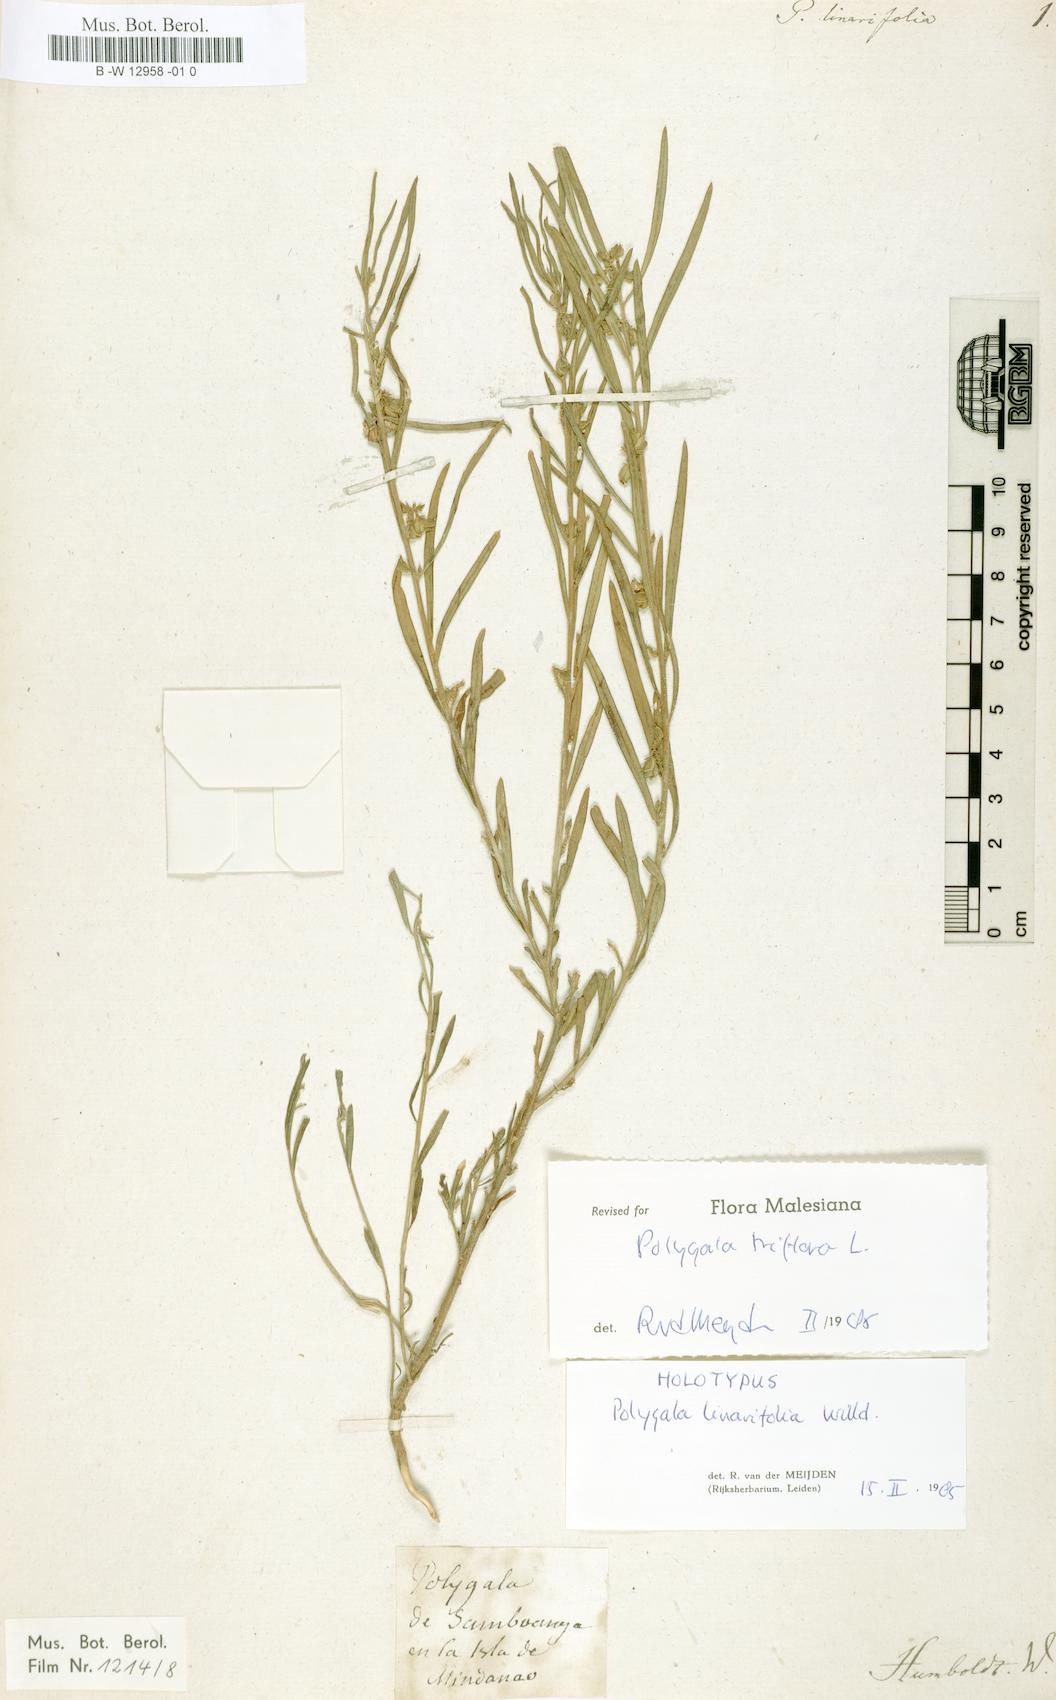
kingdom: Plantae
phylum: Tracheophyta
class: Magnoliopsida
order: Fabales
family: Polygalaceae
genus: Polygala
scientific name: Polygala linarifolia
